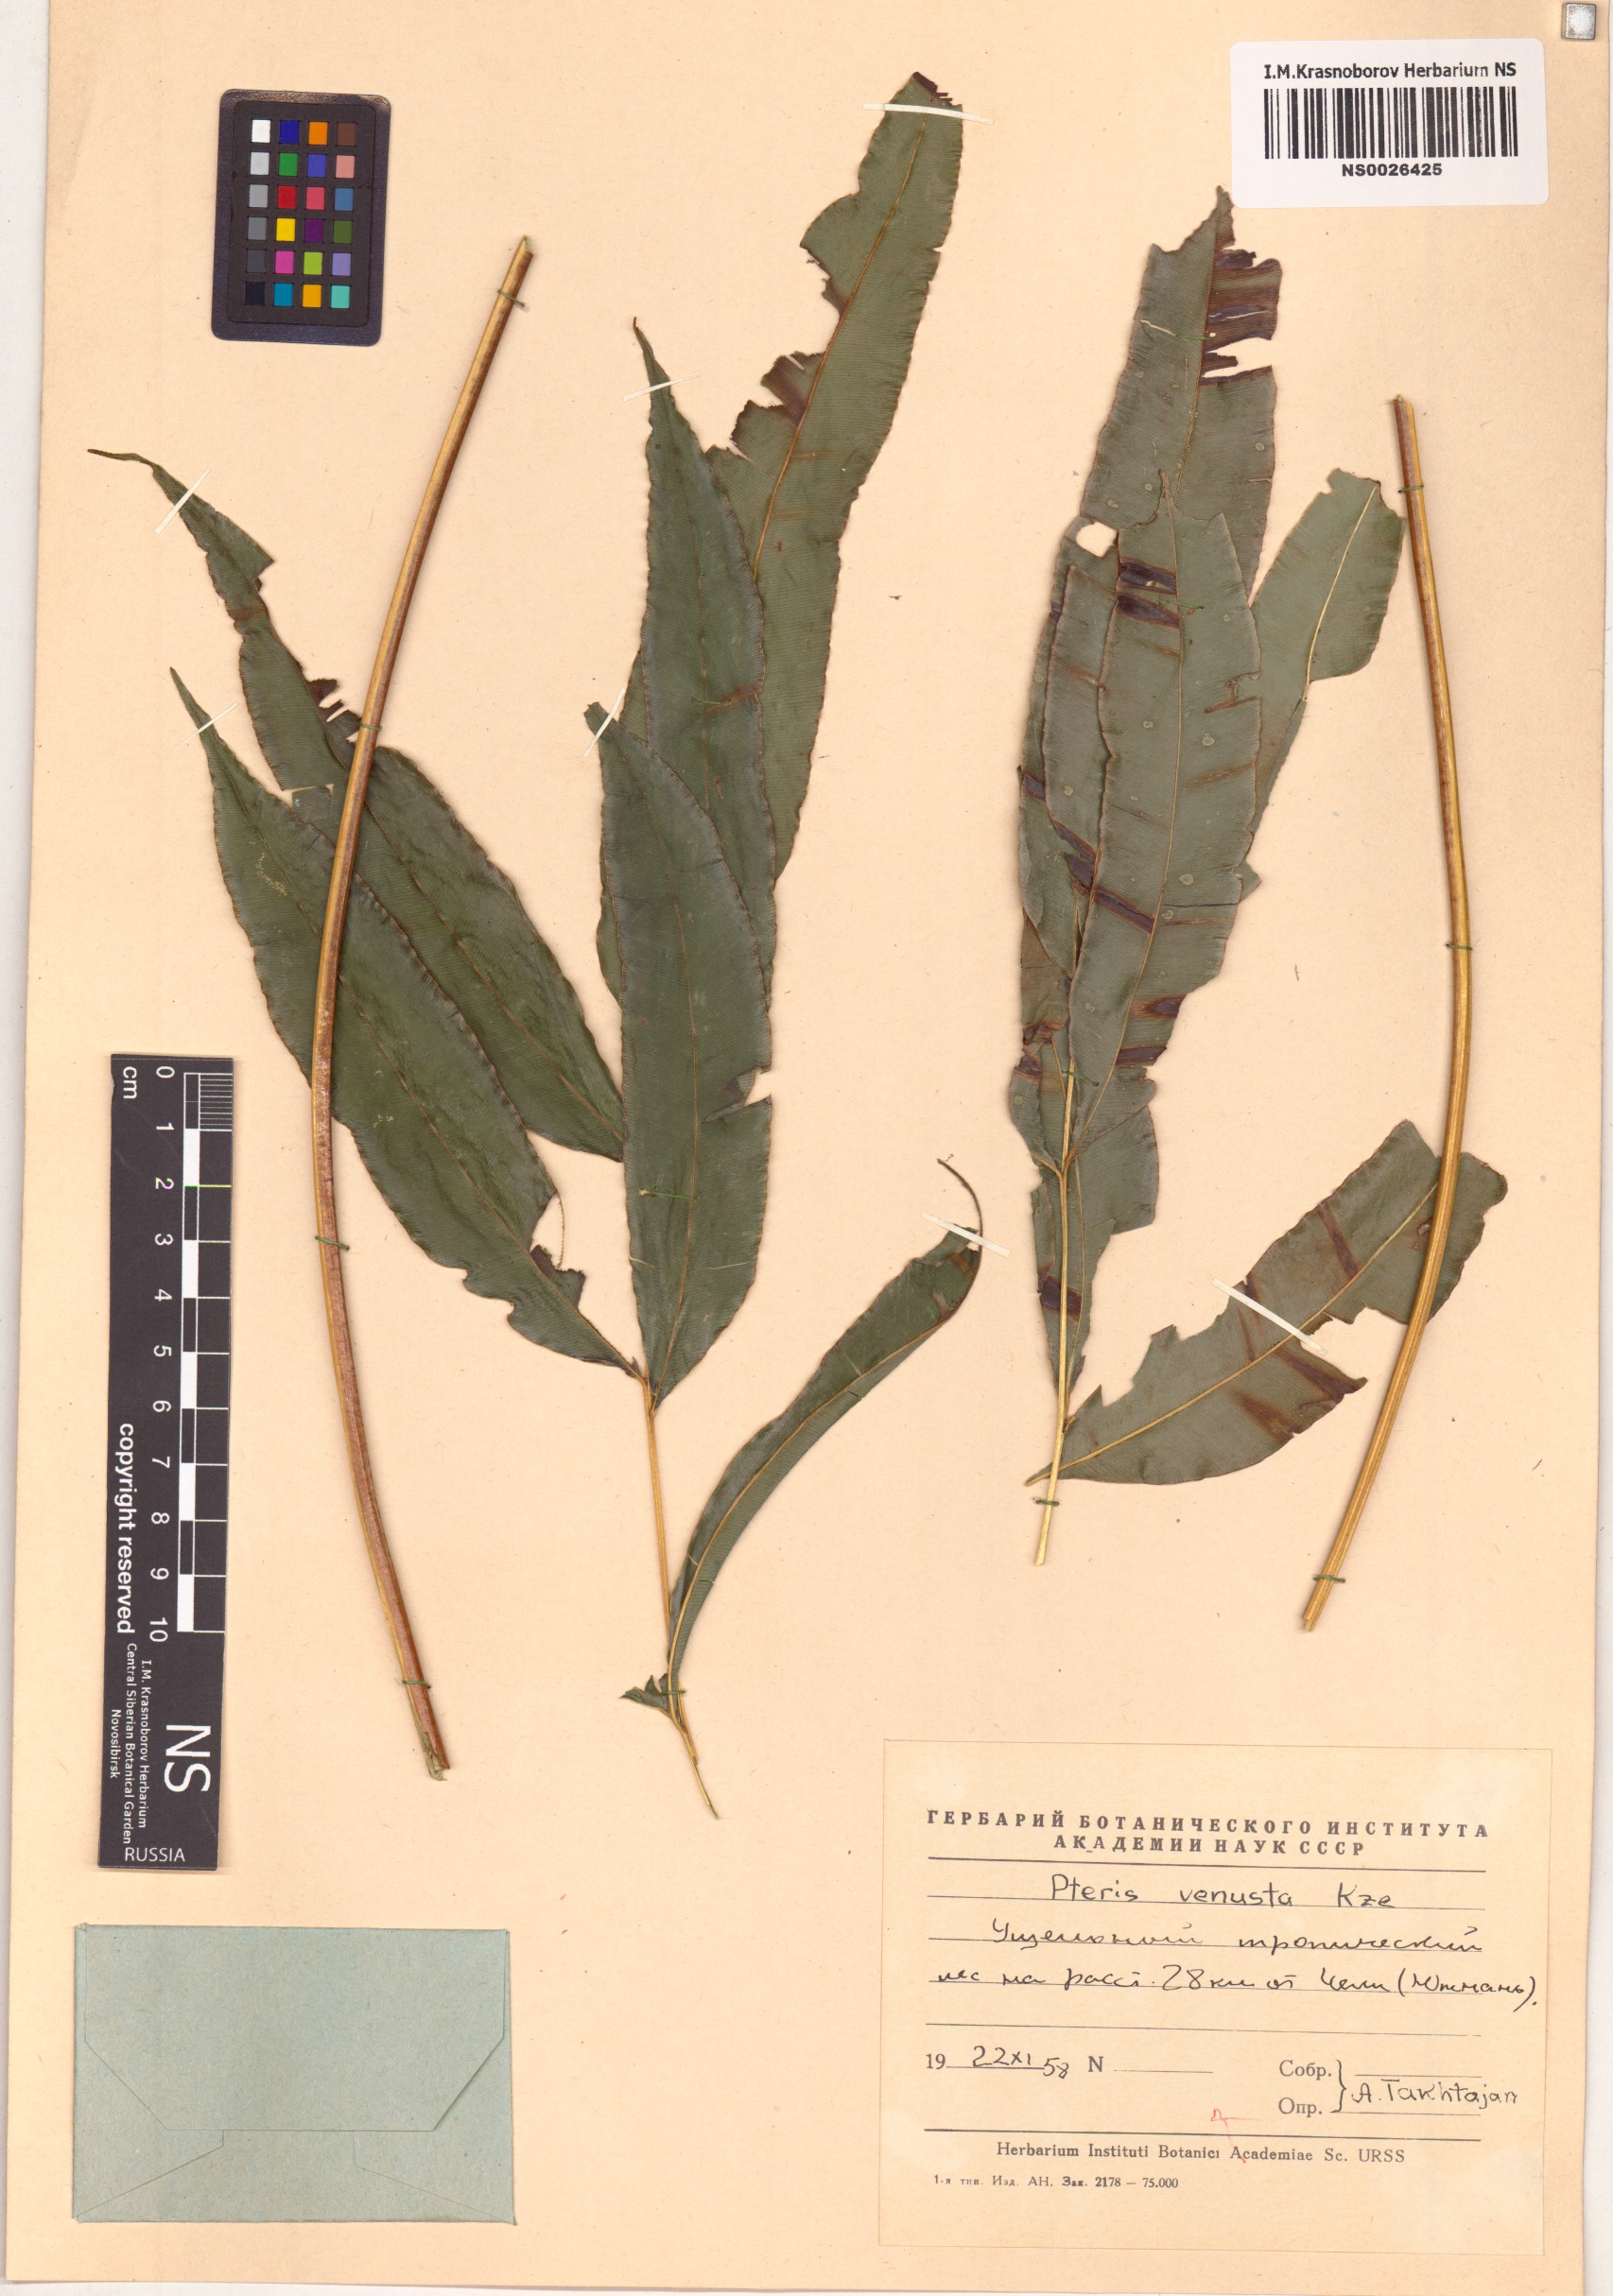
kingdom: Plantae
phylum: Tracheophyta
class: Polypodiopsida
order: Polypodiales
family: Pteridaceae
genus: Pteris
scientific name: Pteris venusta
